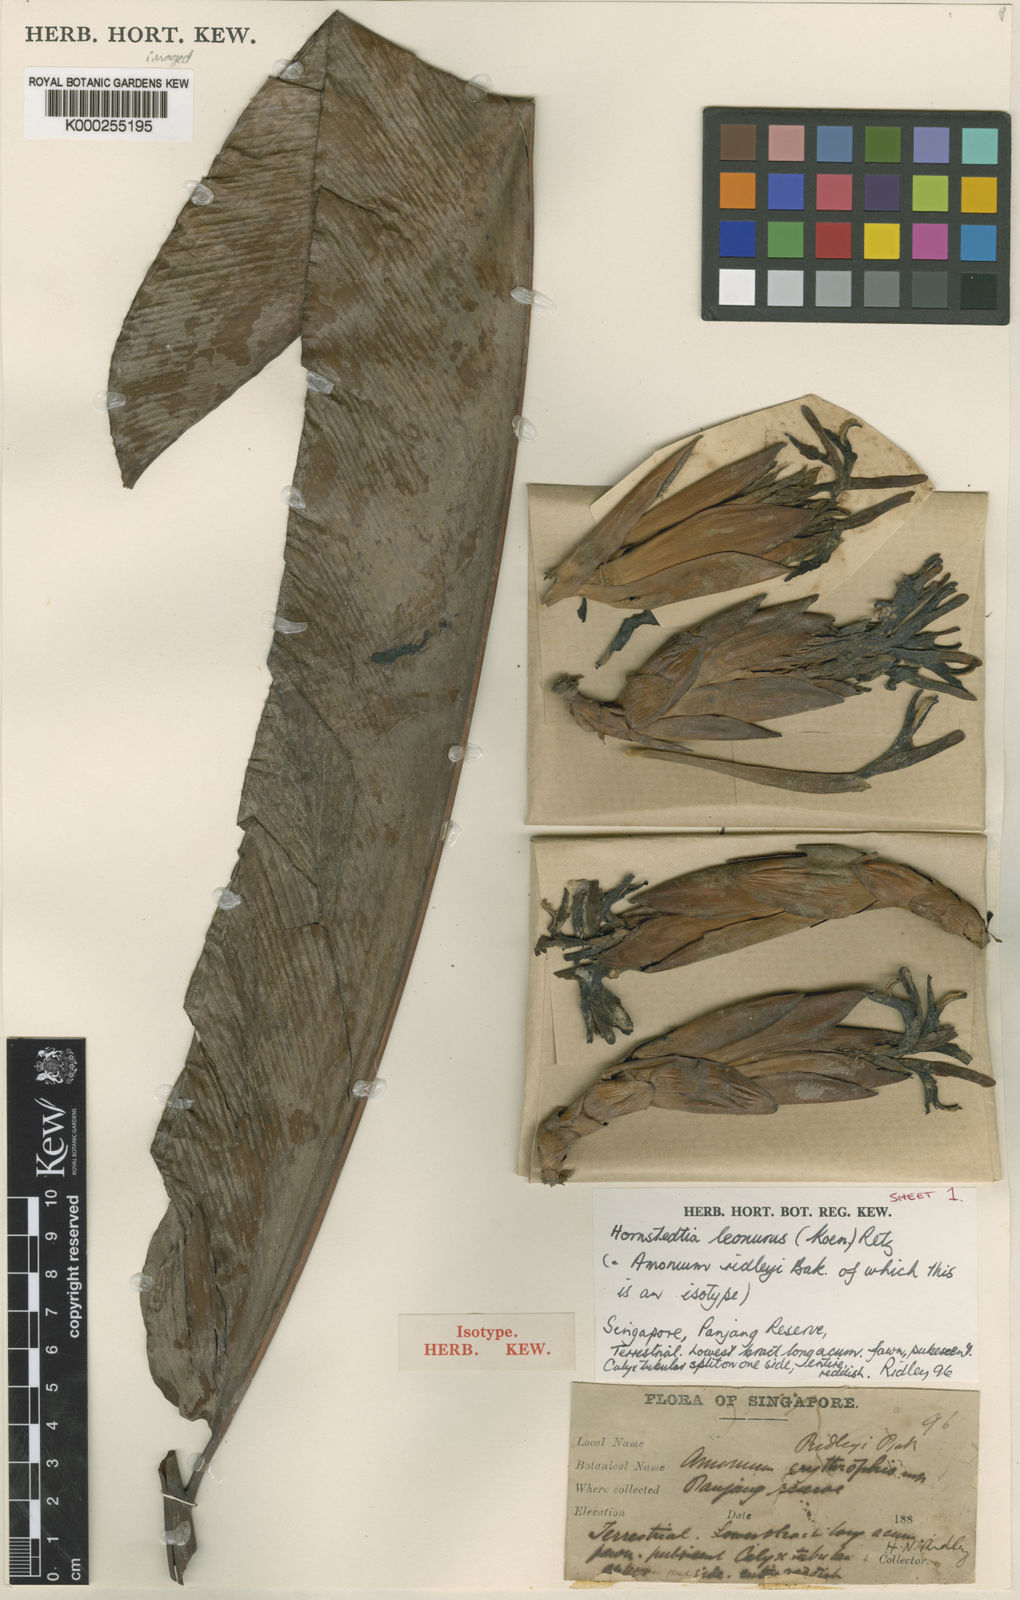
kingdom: Plantae
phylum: Tracheophyta
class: Liliopsida
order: Zingiberales
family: Zingiberaceae
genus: Hornstedtia
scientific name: Hornstedtia leonurus
